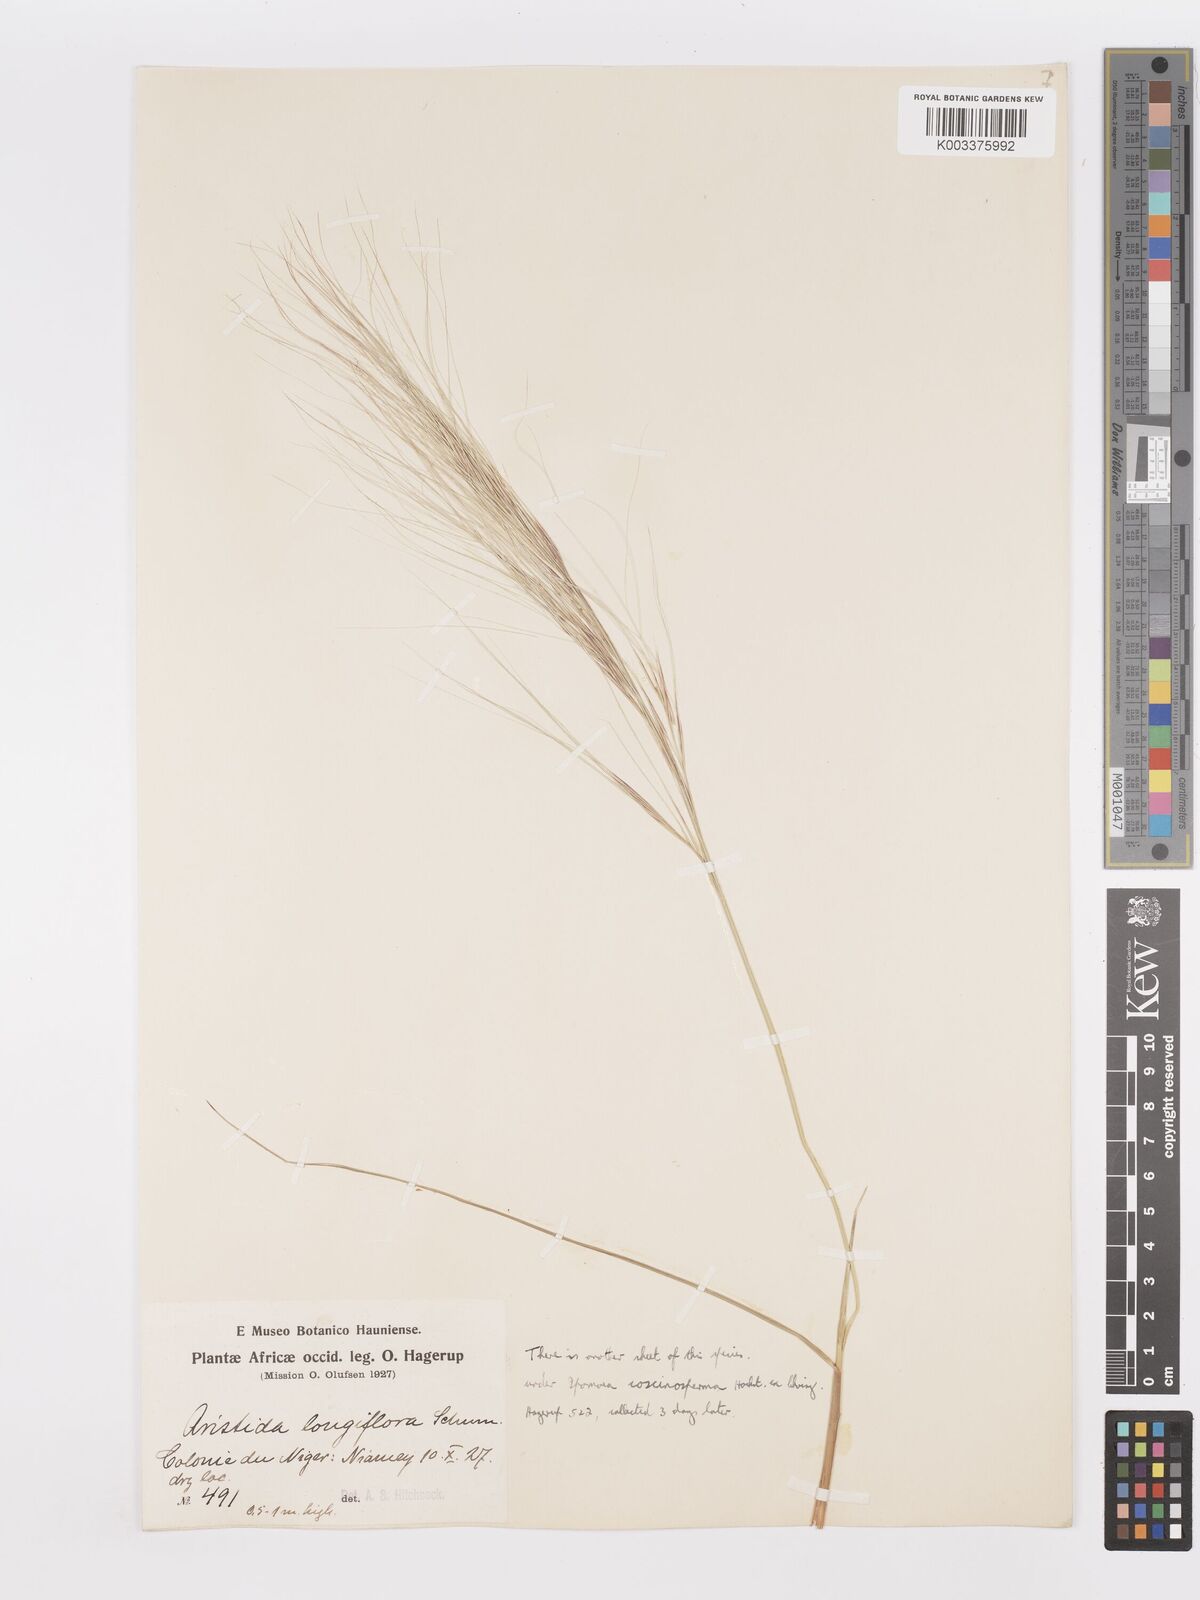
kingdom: Plantae
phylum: Tracheophyta
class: Liliopsida
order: Poales
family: Poaceae
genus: Aristida
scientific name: Aristida sieberiana
